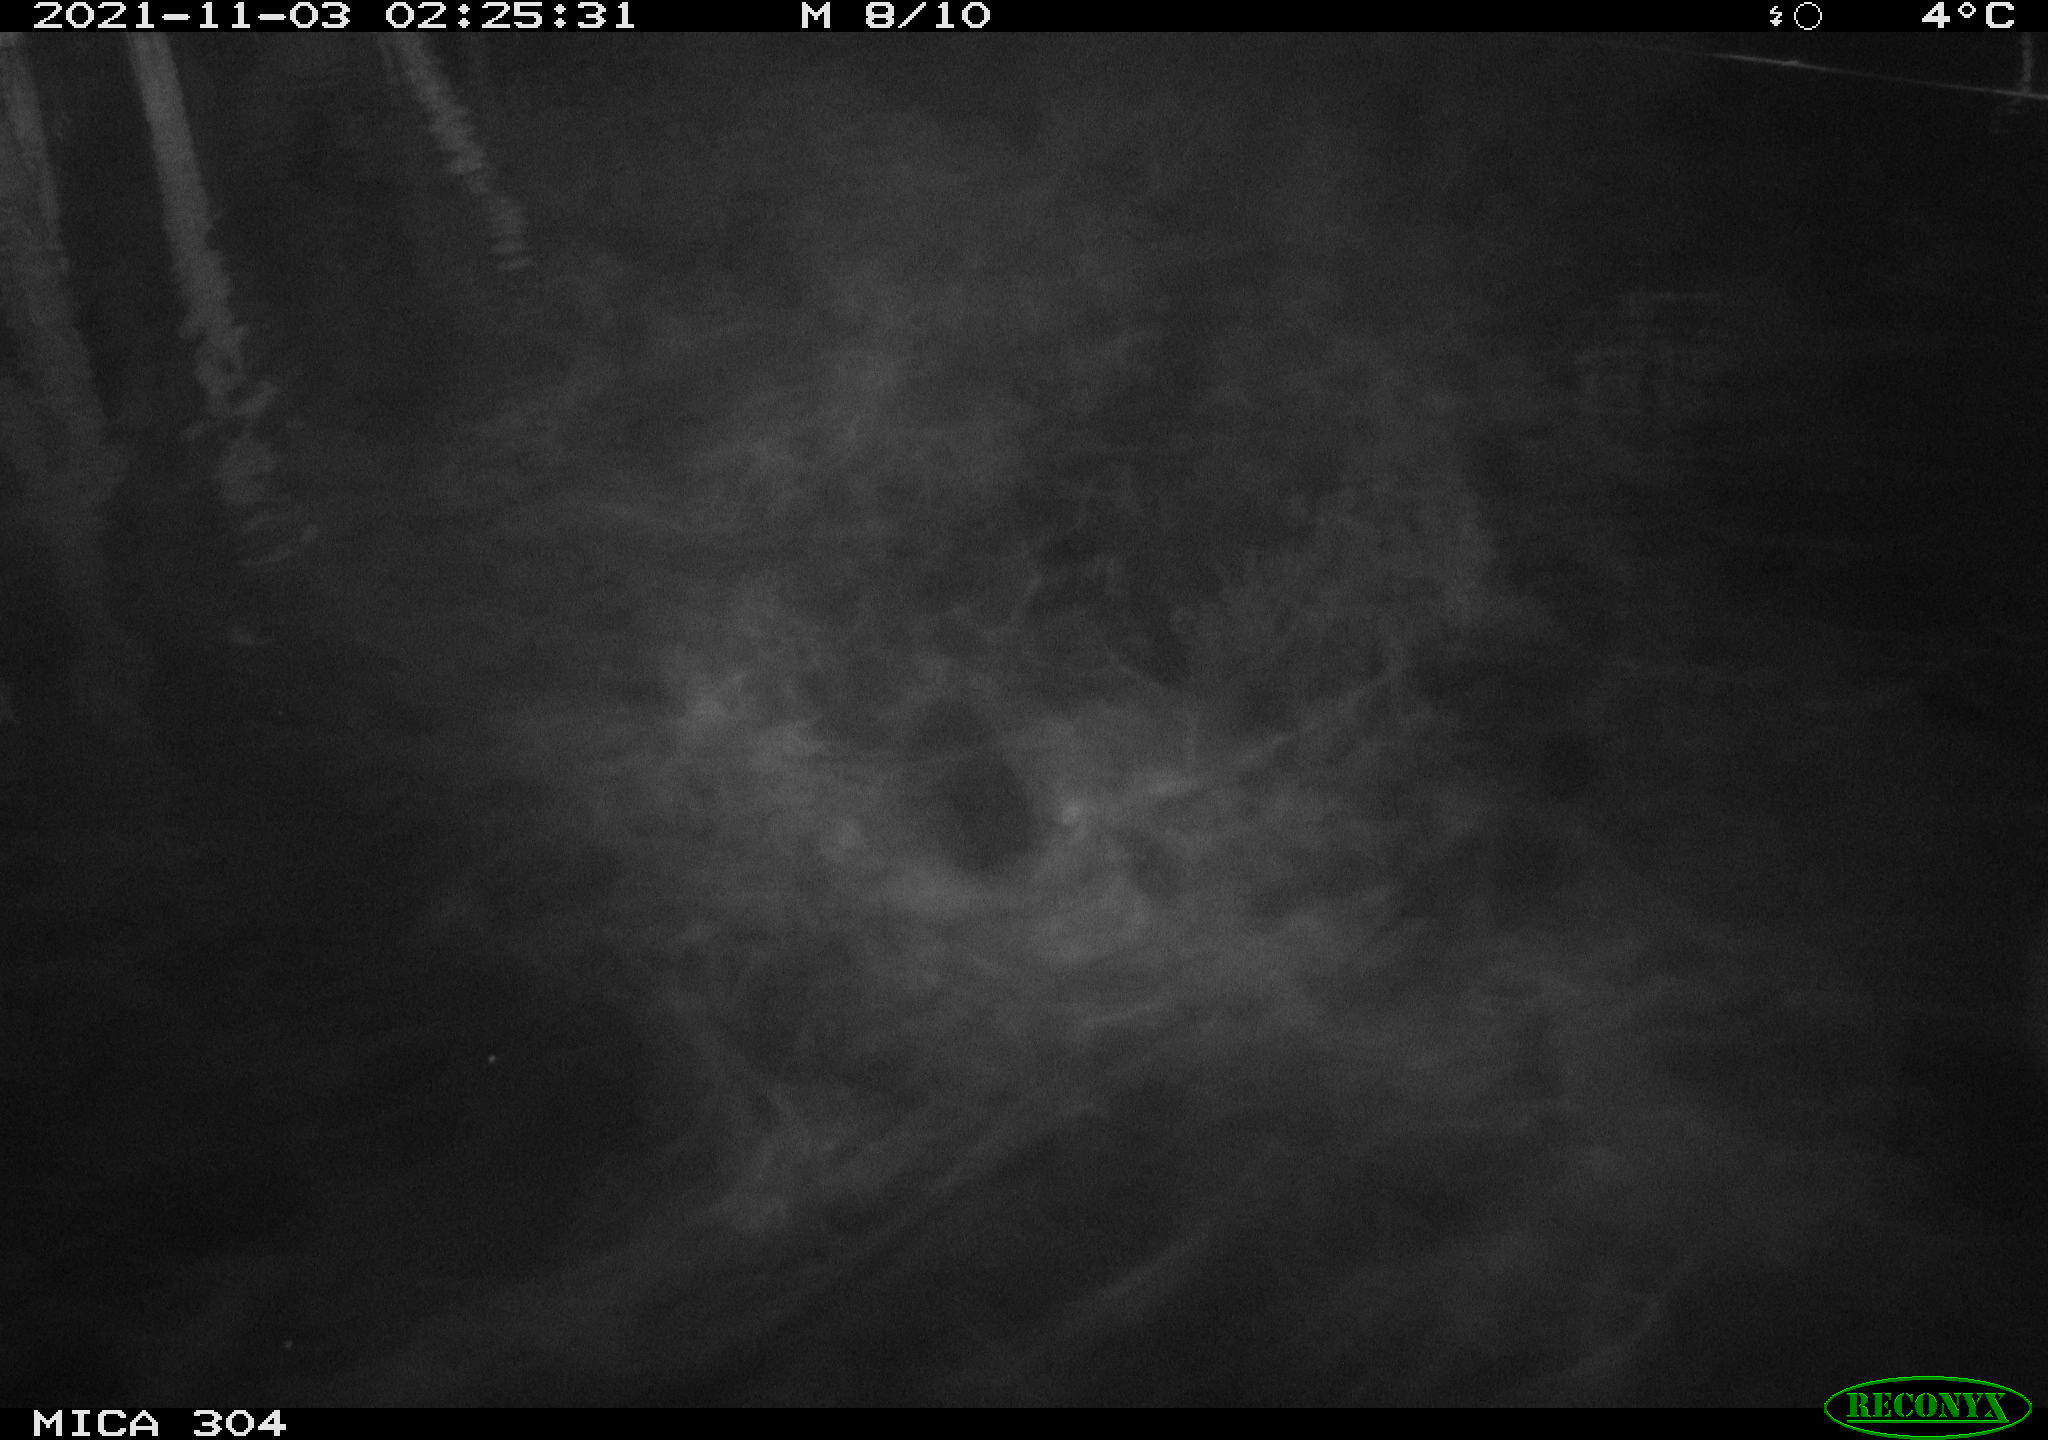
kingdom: Animalia
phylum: Chordata
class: Mammalia
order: Rodentia
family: Muridae
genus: Rattus
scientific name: Rattus norvegicus
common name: Brown rat
